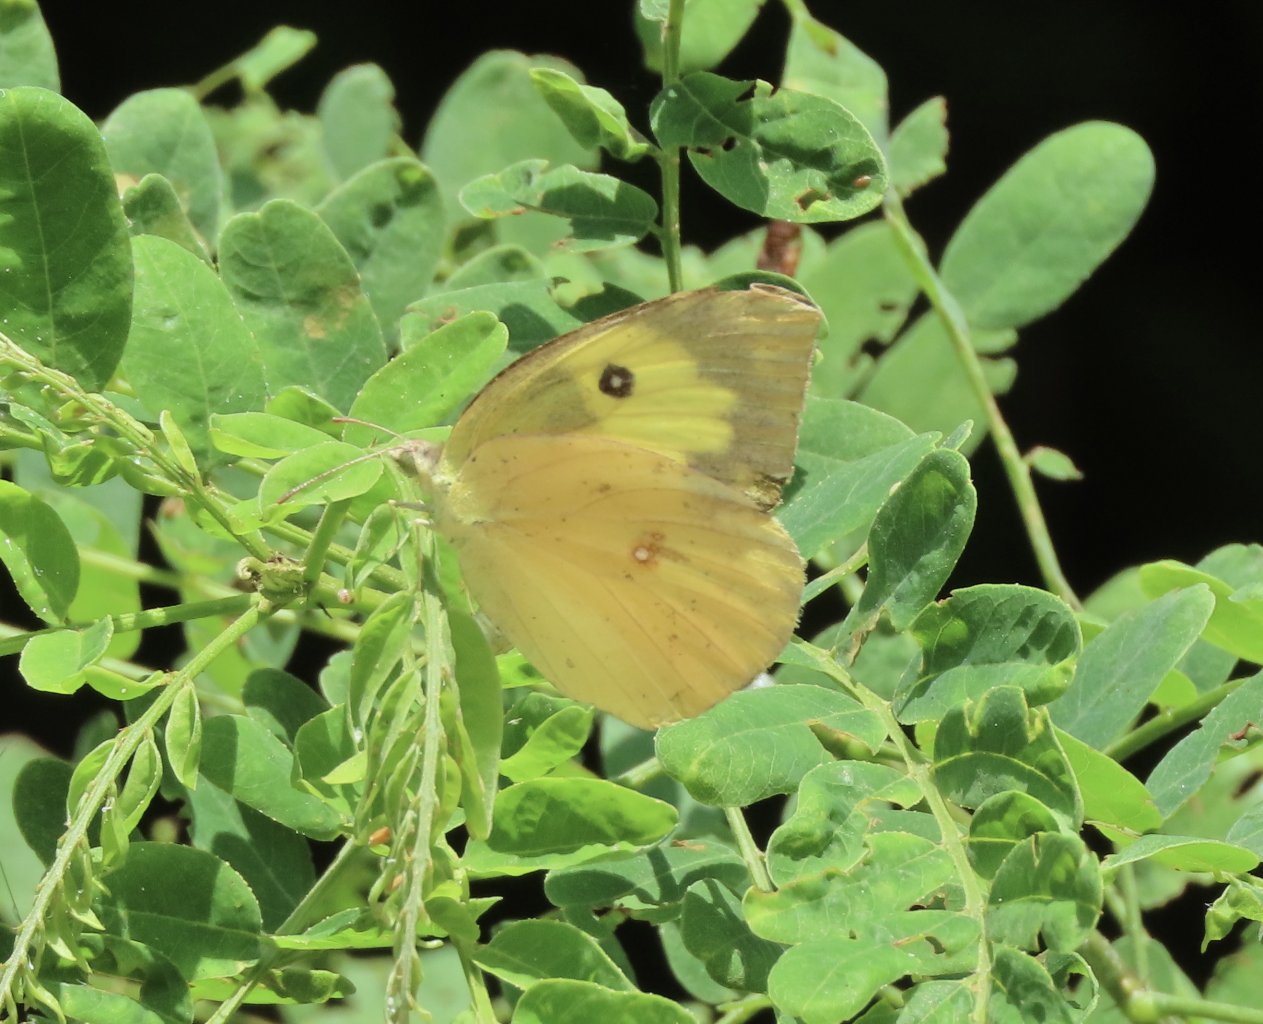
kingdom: Animalia
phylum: Arthropoda
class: Insecta
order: Lepidoptera
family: Pieridae
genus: Zerene
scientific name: Zerene cesonia
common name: Southern Dogface
